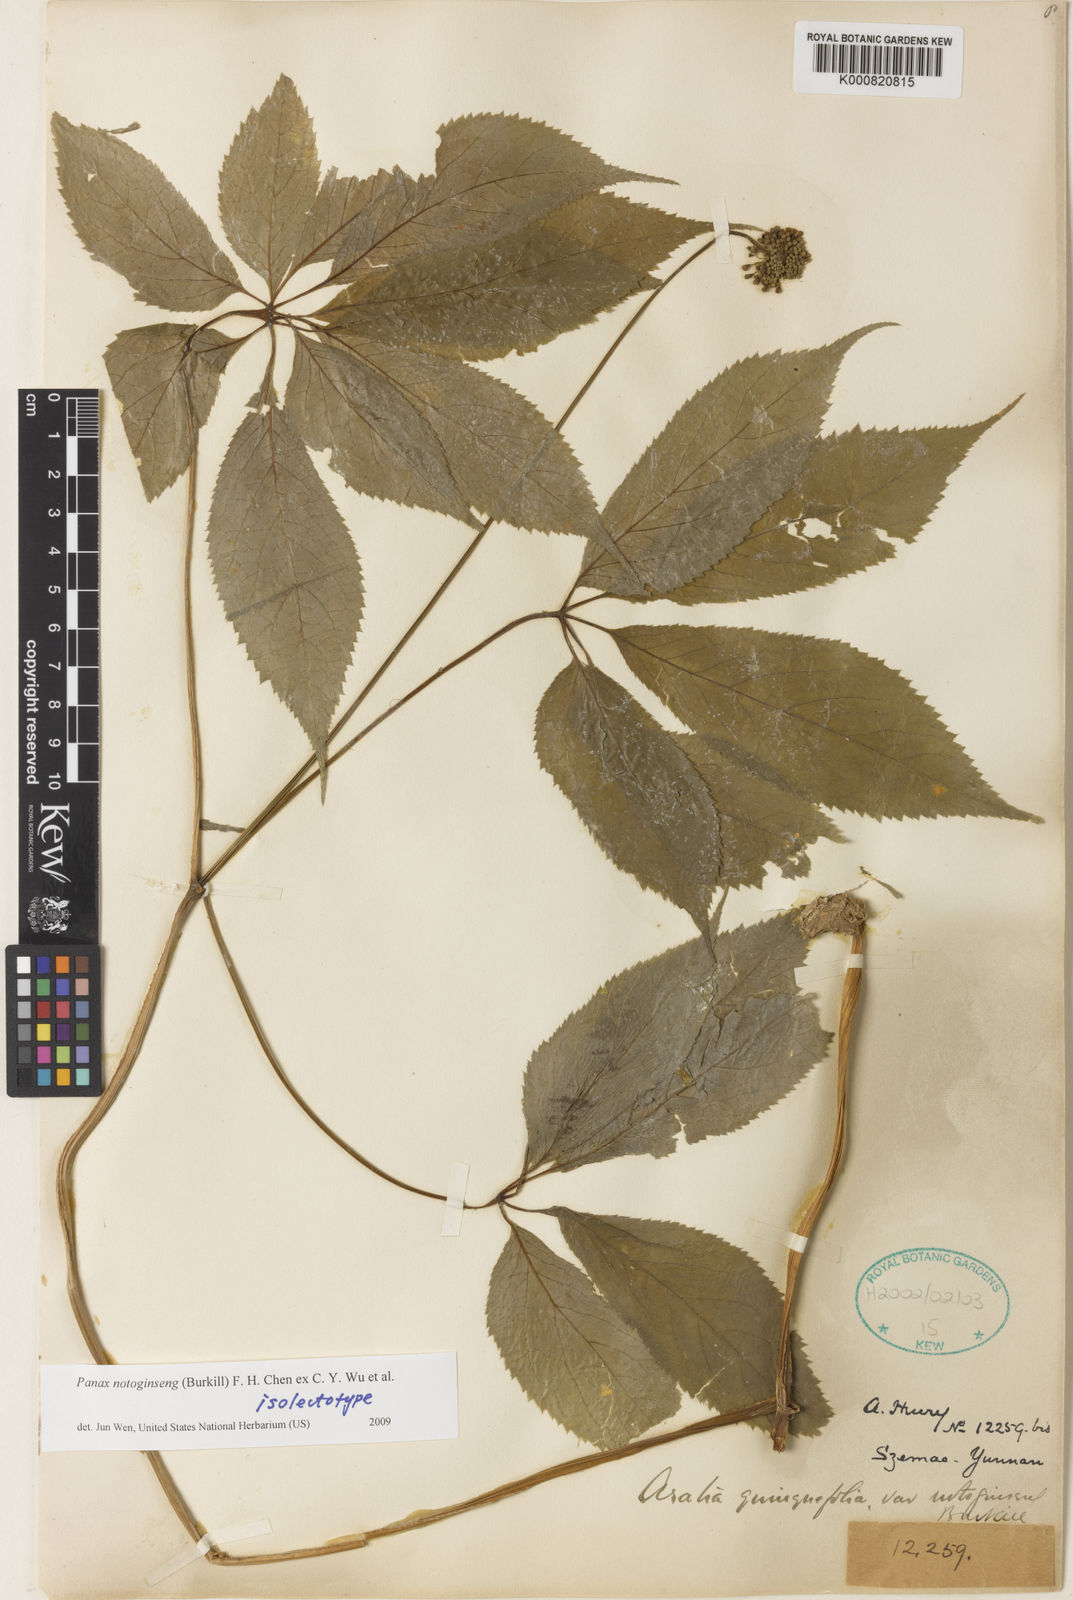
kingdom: Plantae
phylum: Tracheophyta
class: Magnoliopsida
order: Apiales
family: Araliaceae
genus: Panax
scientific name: Panax
